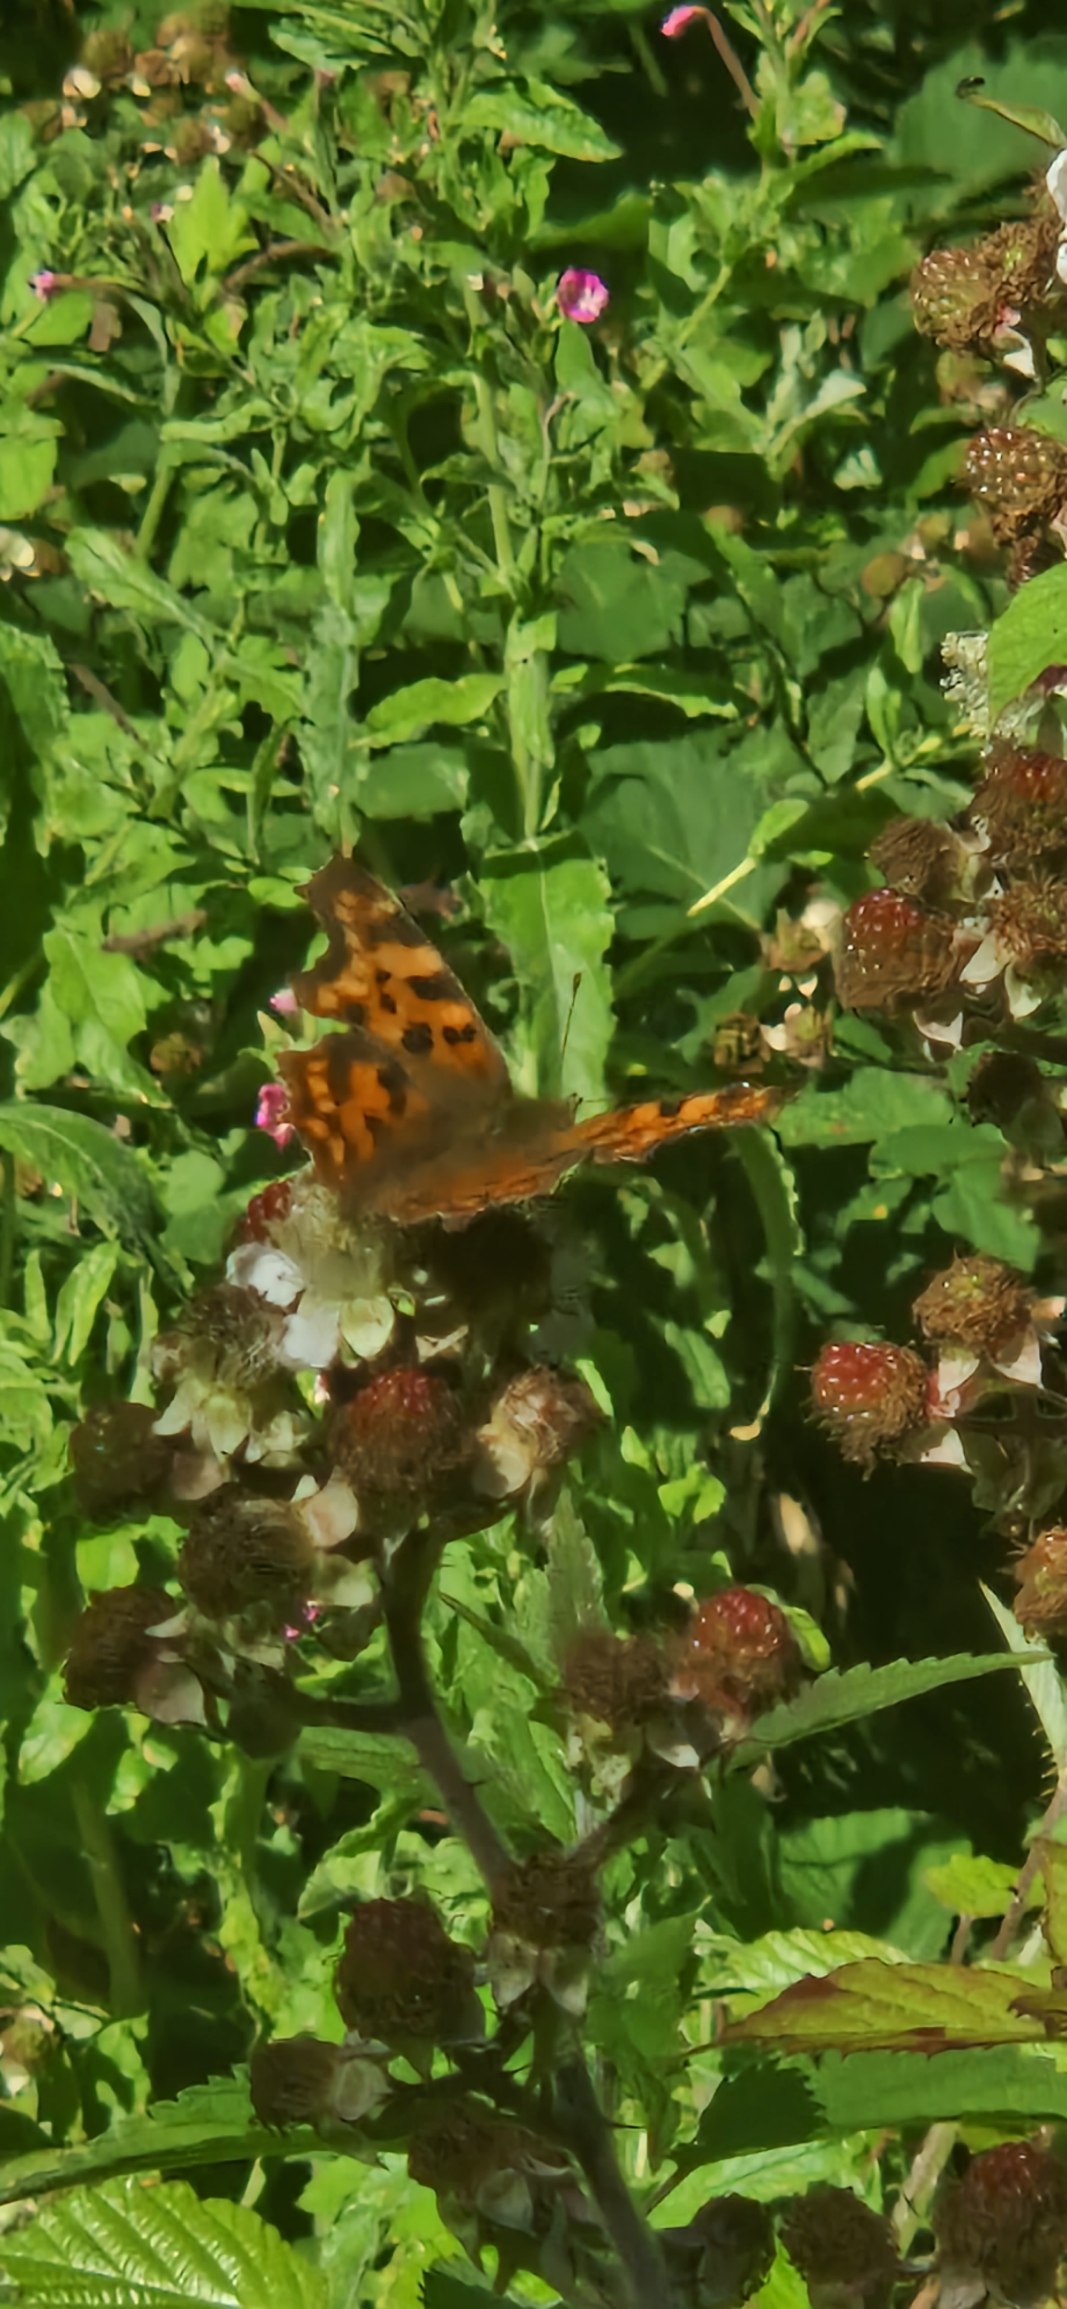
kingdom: Animalia
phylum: Arthropoda
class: Insecta
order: Lepidoptera
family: Nymphalidae
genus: Polygonia
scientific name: Polygonia c-album
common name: Det hvide C
